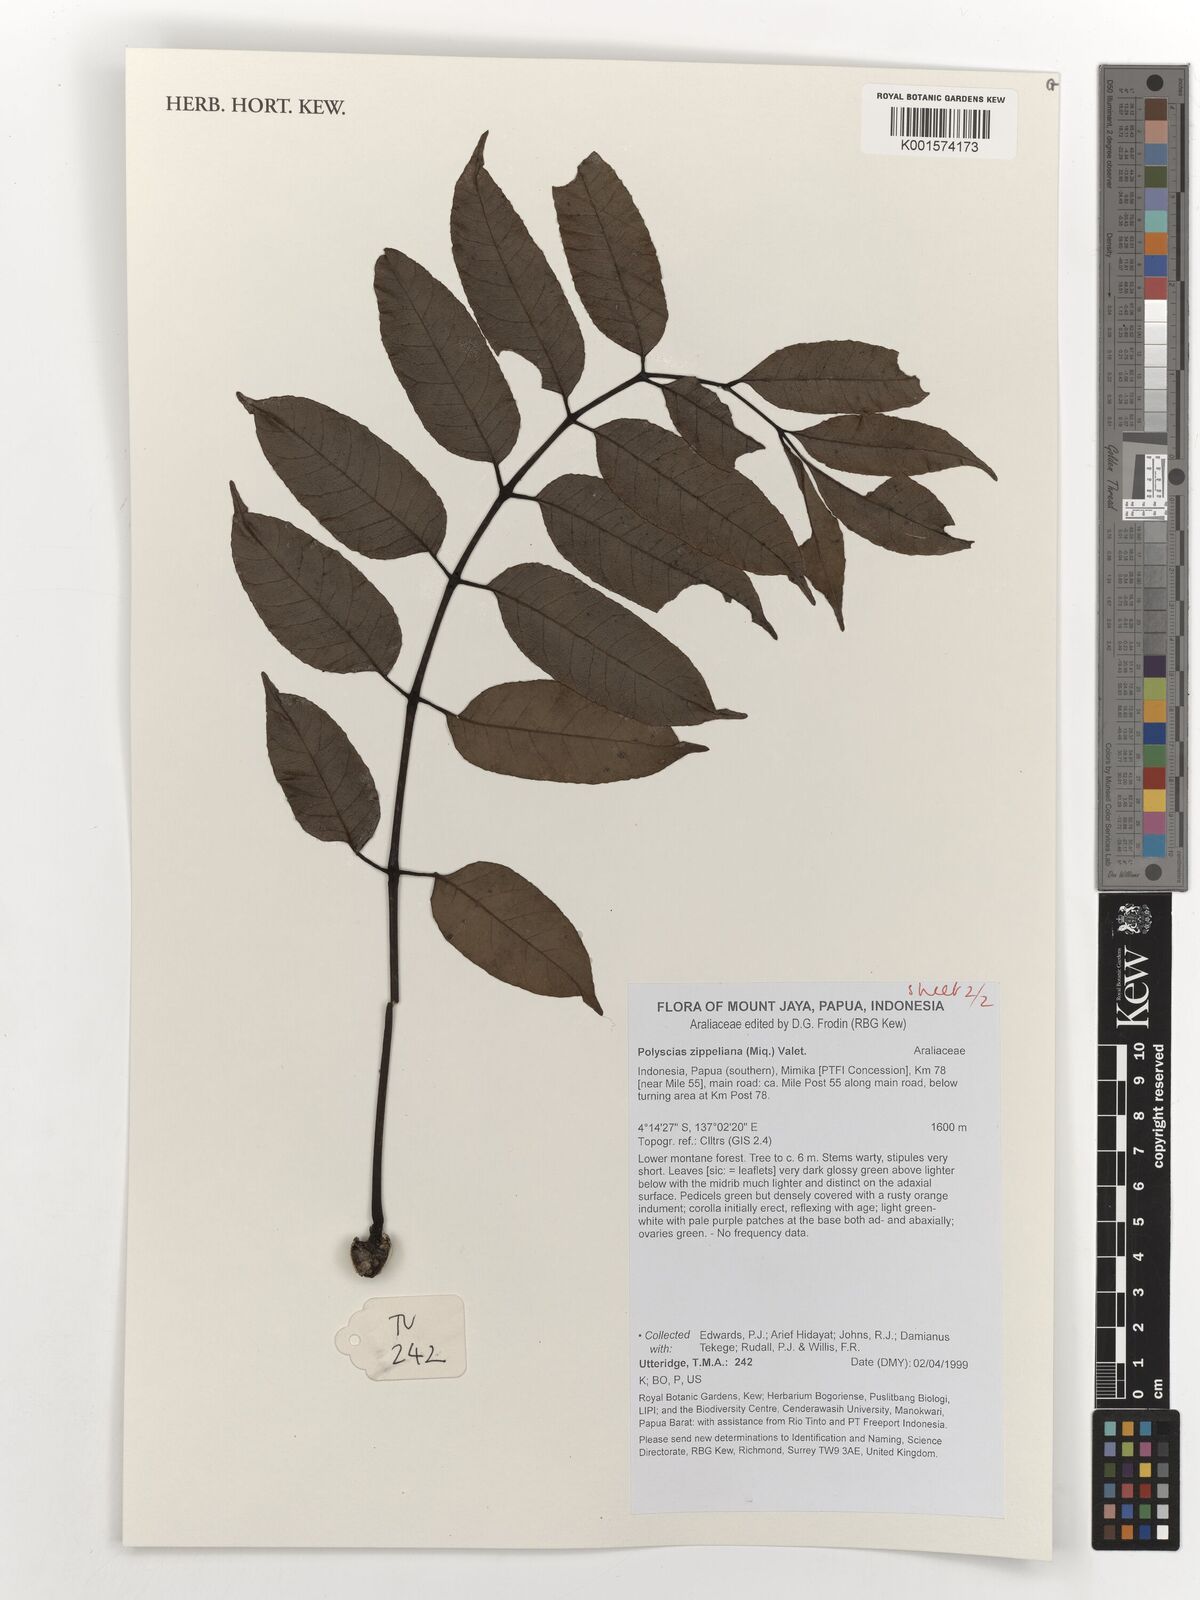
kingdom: Plantae
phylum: Tracheophyta
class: Magnoliopsida
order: Apiales
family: Araliaceae
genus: Polyscias
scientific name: Polyscias zippeliana
